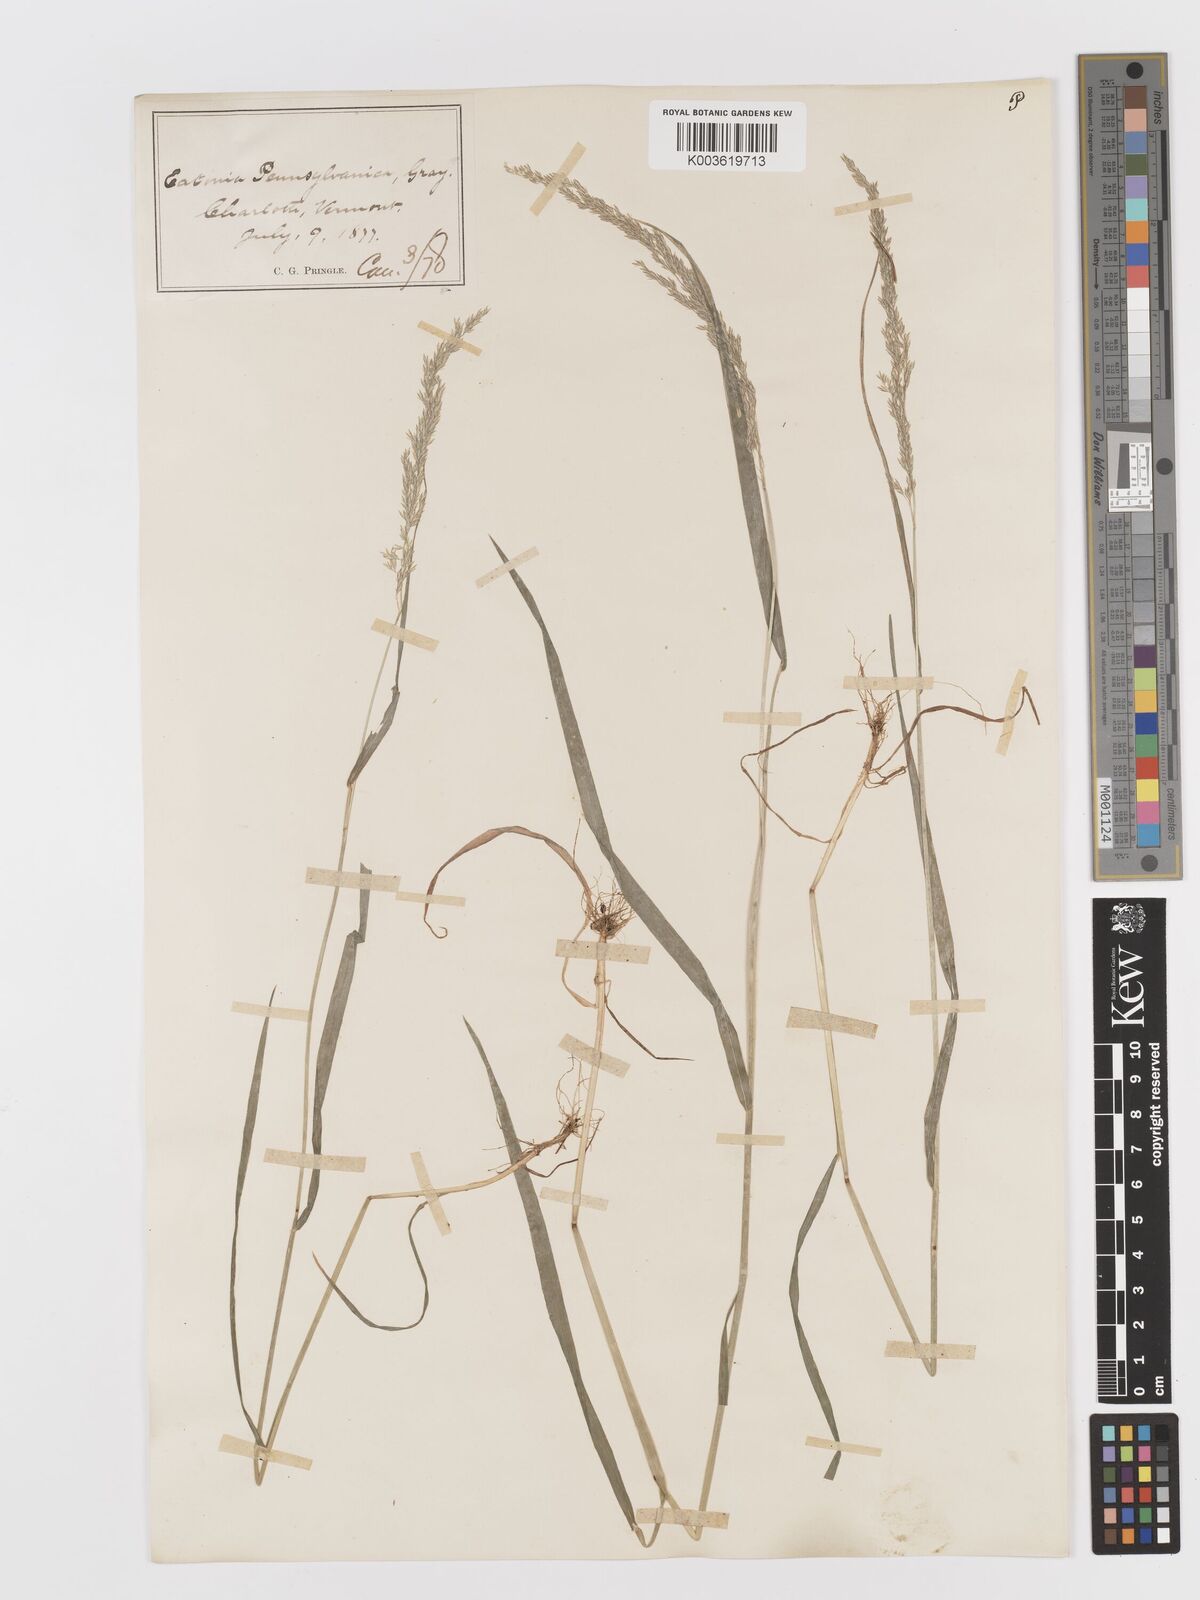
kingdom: Plantae
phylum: Tracheophyta
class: Liliopsida
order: Poales
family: Poaceae
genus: Sphenopholis
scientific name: Sphenopholis obtusata
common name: Prairie grass
